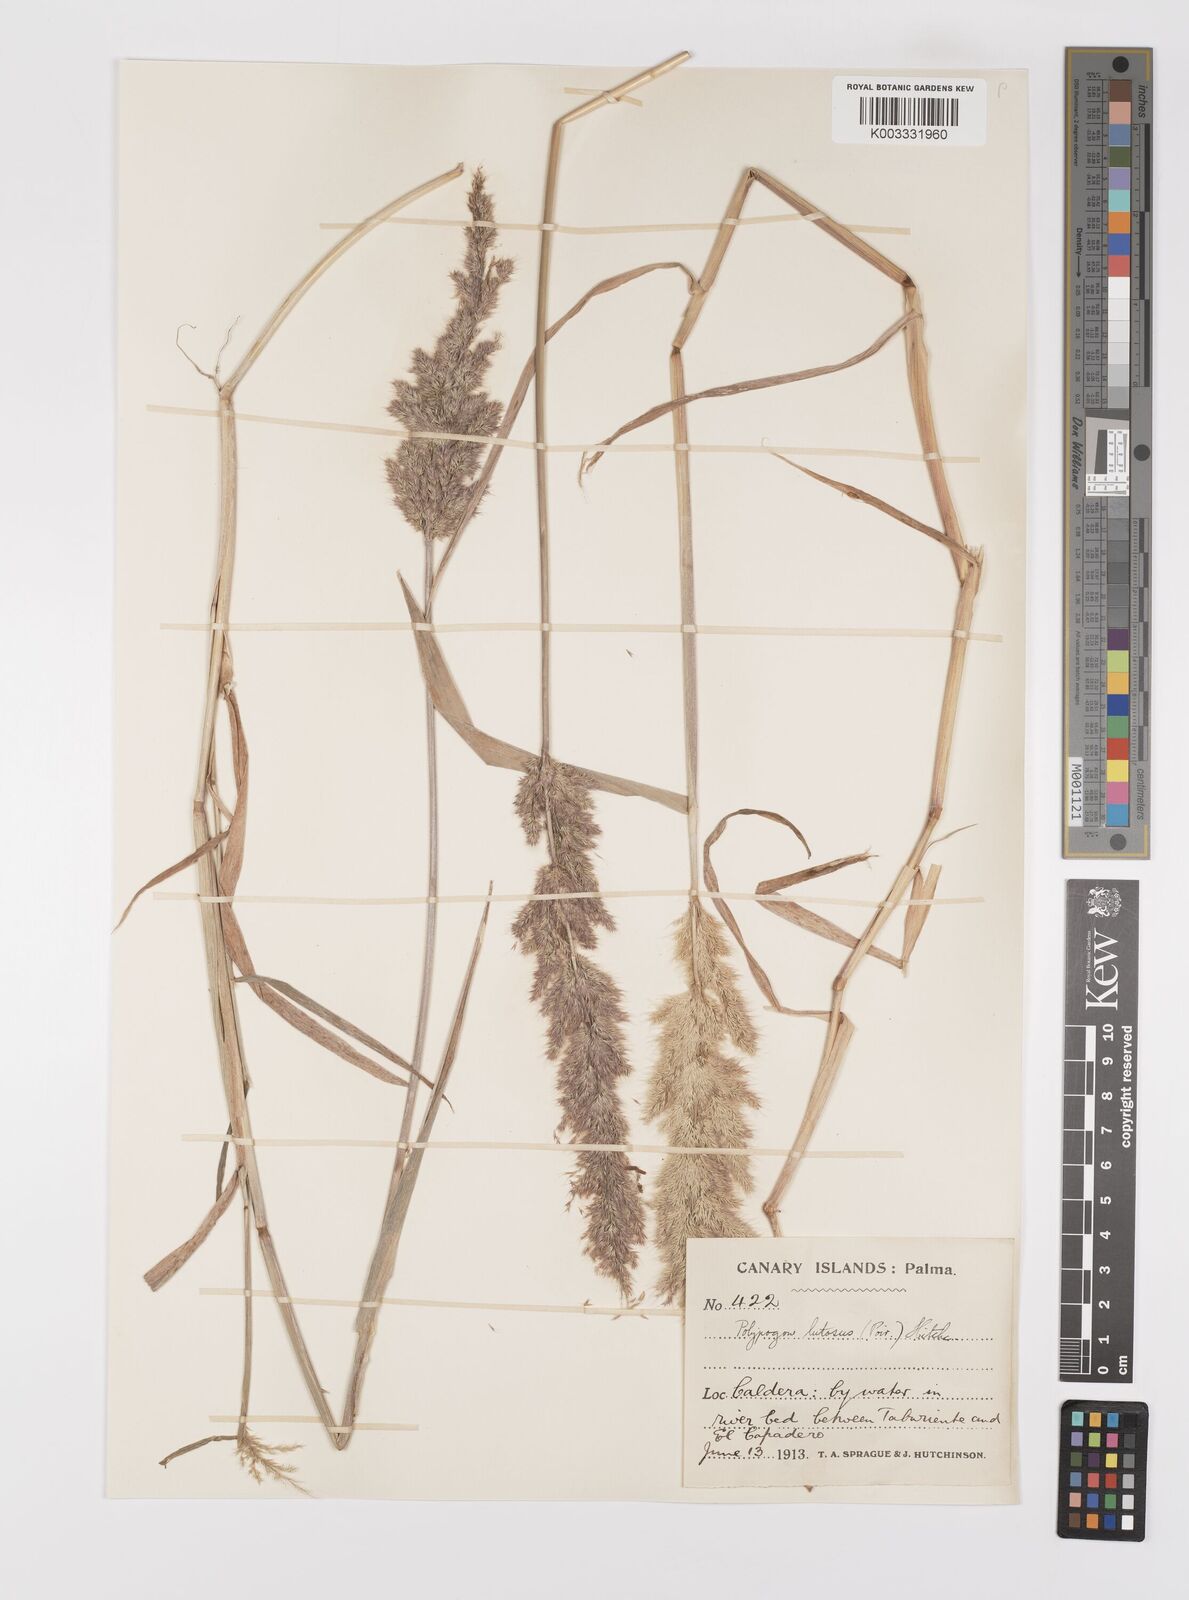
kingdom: Plantae
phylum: Tracheophyta
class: Liliopsida
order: Poales
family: Poaceae
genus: Polypogon
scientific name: Polypogon fugax
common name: Asia minor bluegrass
